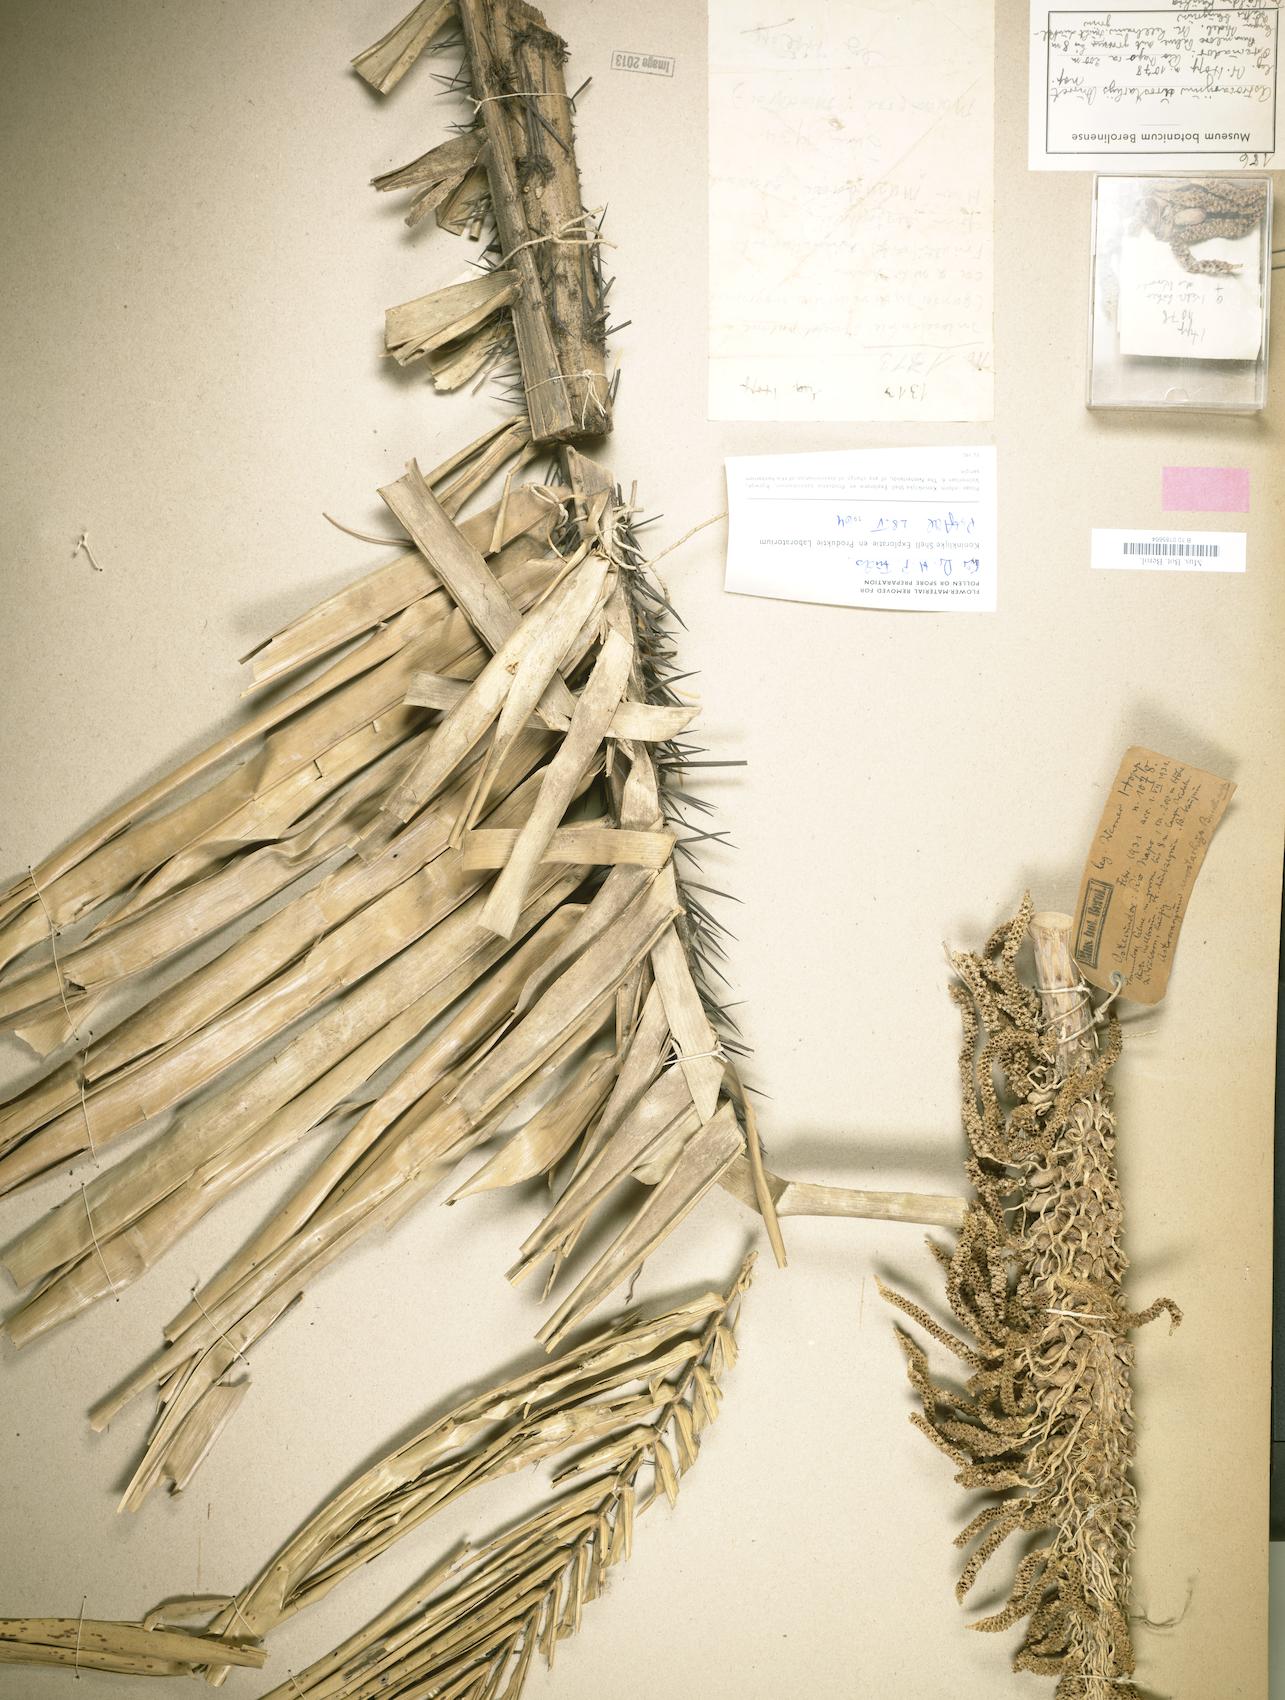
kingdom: Plantae
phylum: Tracheophyta
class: Liliopsida
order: Arecales
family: Arecaceae
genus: Astrocaryum
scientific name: Astrocaryum urostachys
